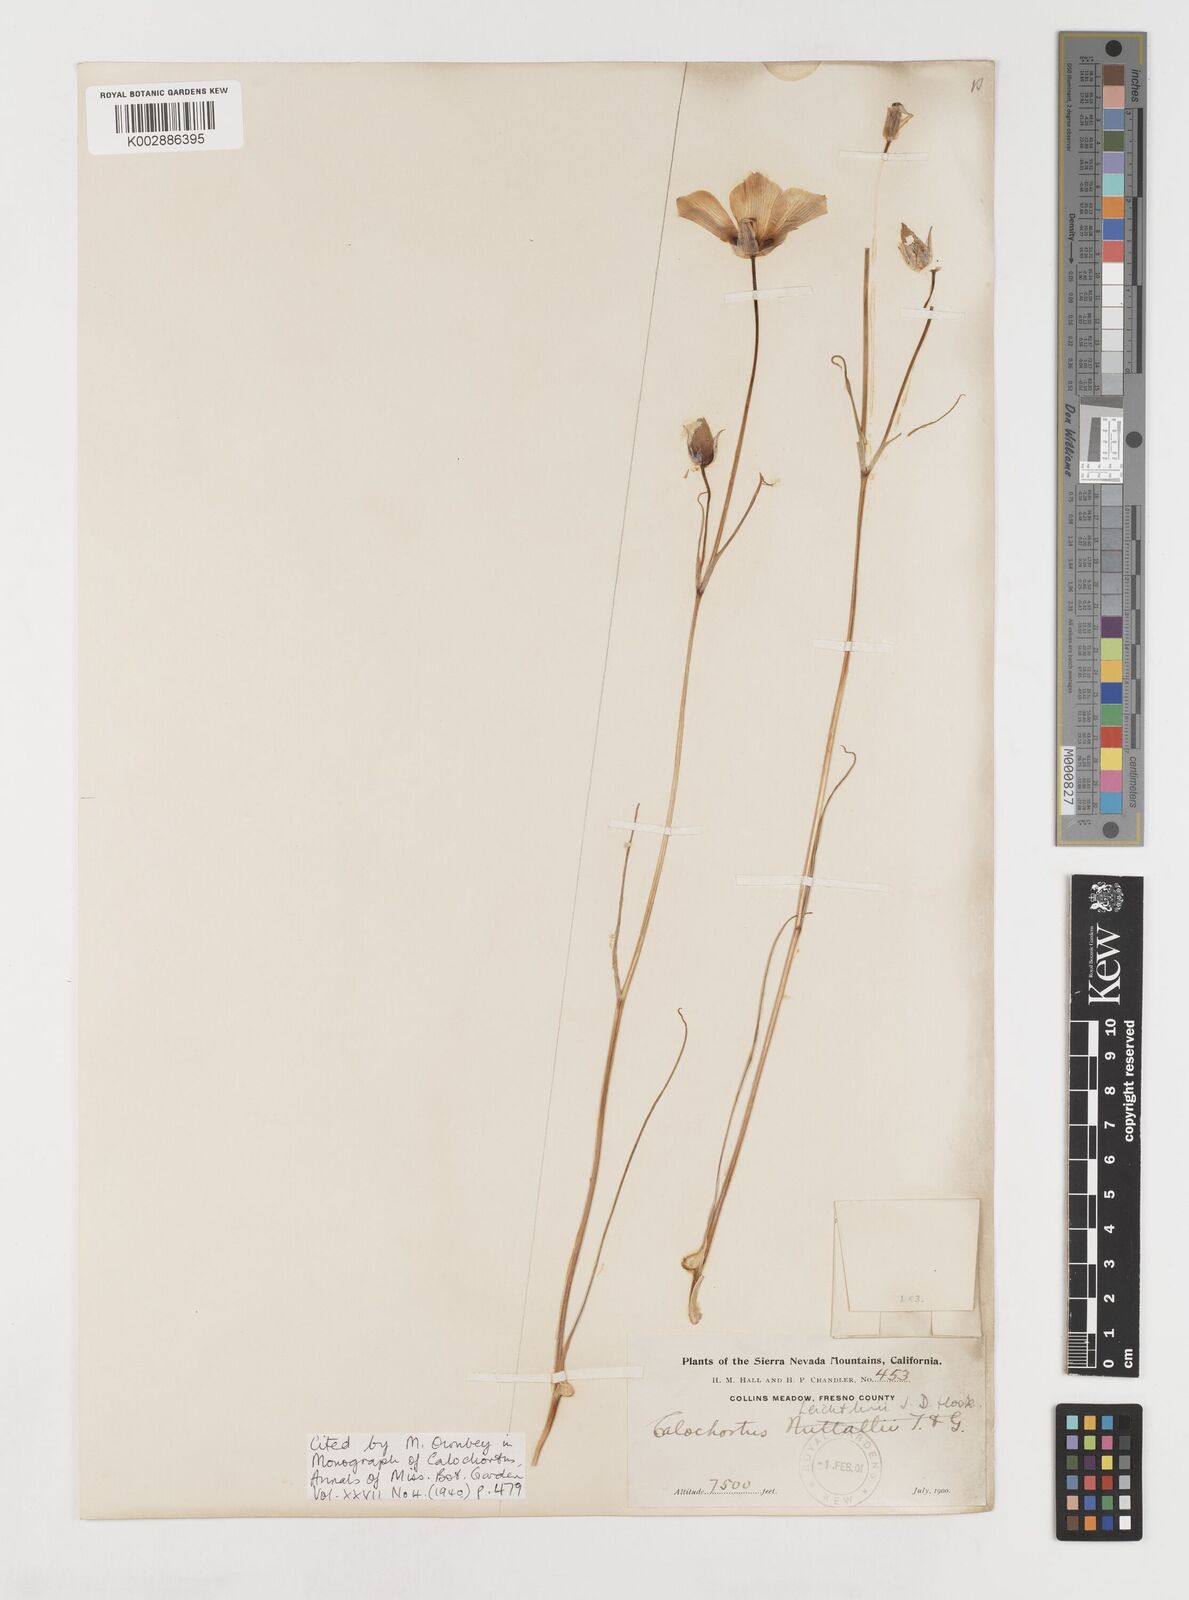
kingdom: Plantae
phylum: Tracheophyta
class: Liliopsida
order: Liliales
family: Liliaceae
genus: Calochortus
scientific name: Calochortus leichtlinii
